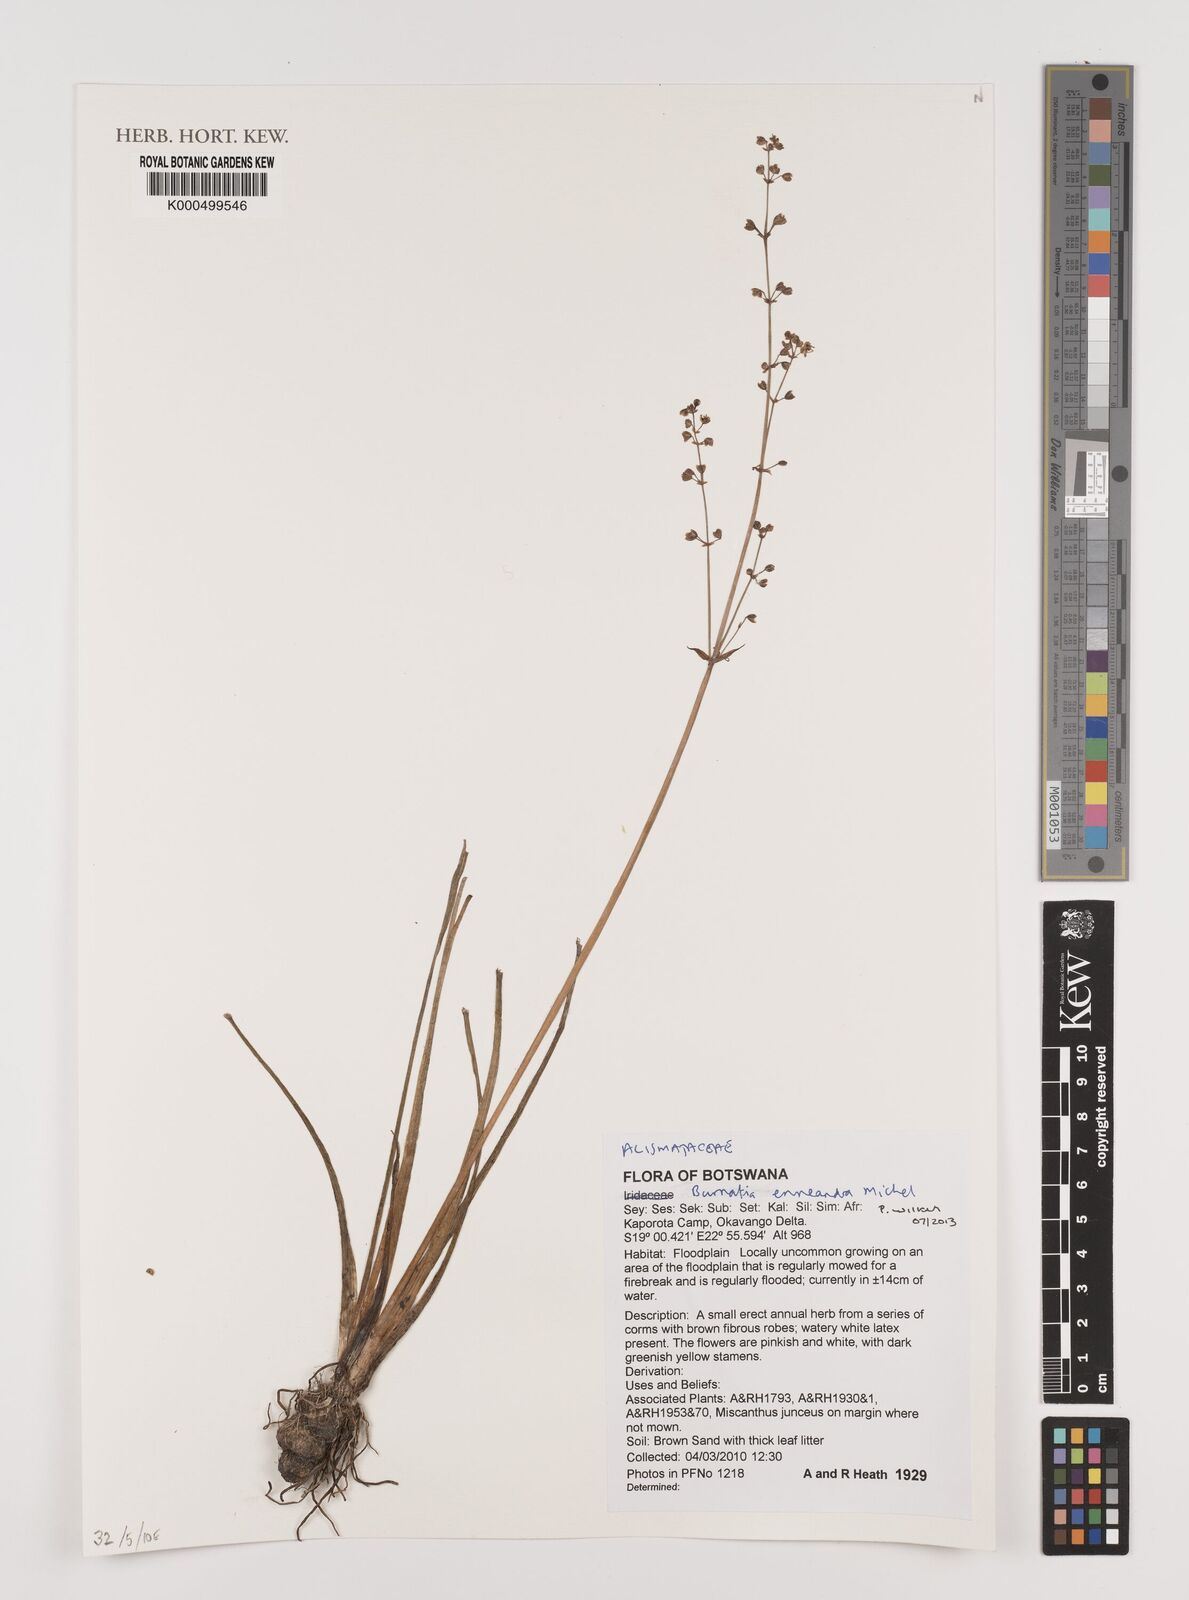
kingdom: Plantae
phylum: Tracheophyta
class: Liliopsida
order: Alismatales
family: Alismataceae
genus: Burnatia
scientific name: Burnatia enneandra
